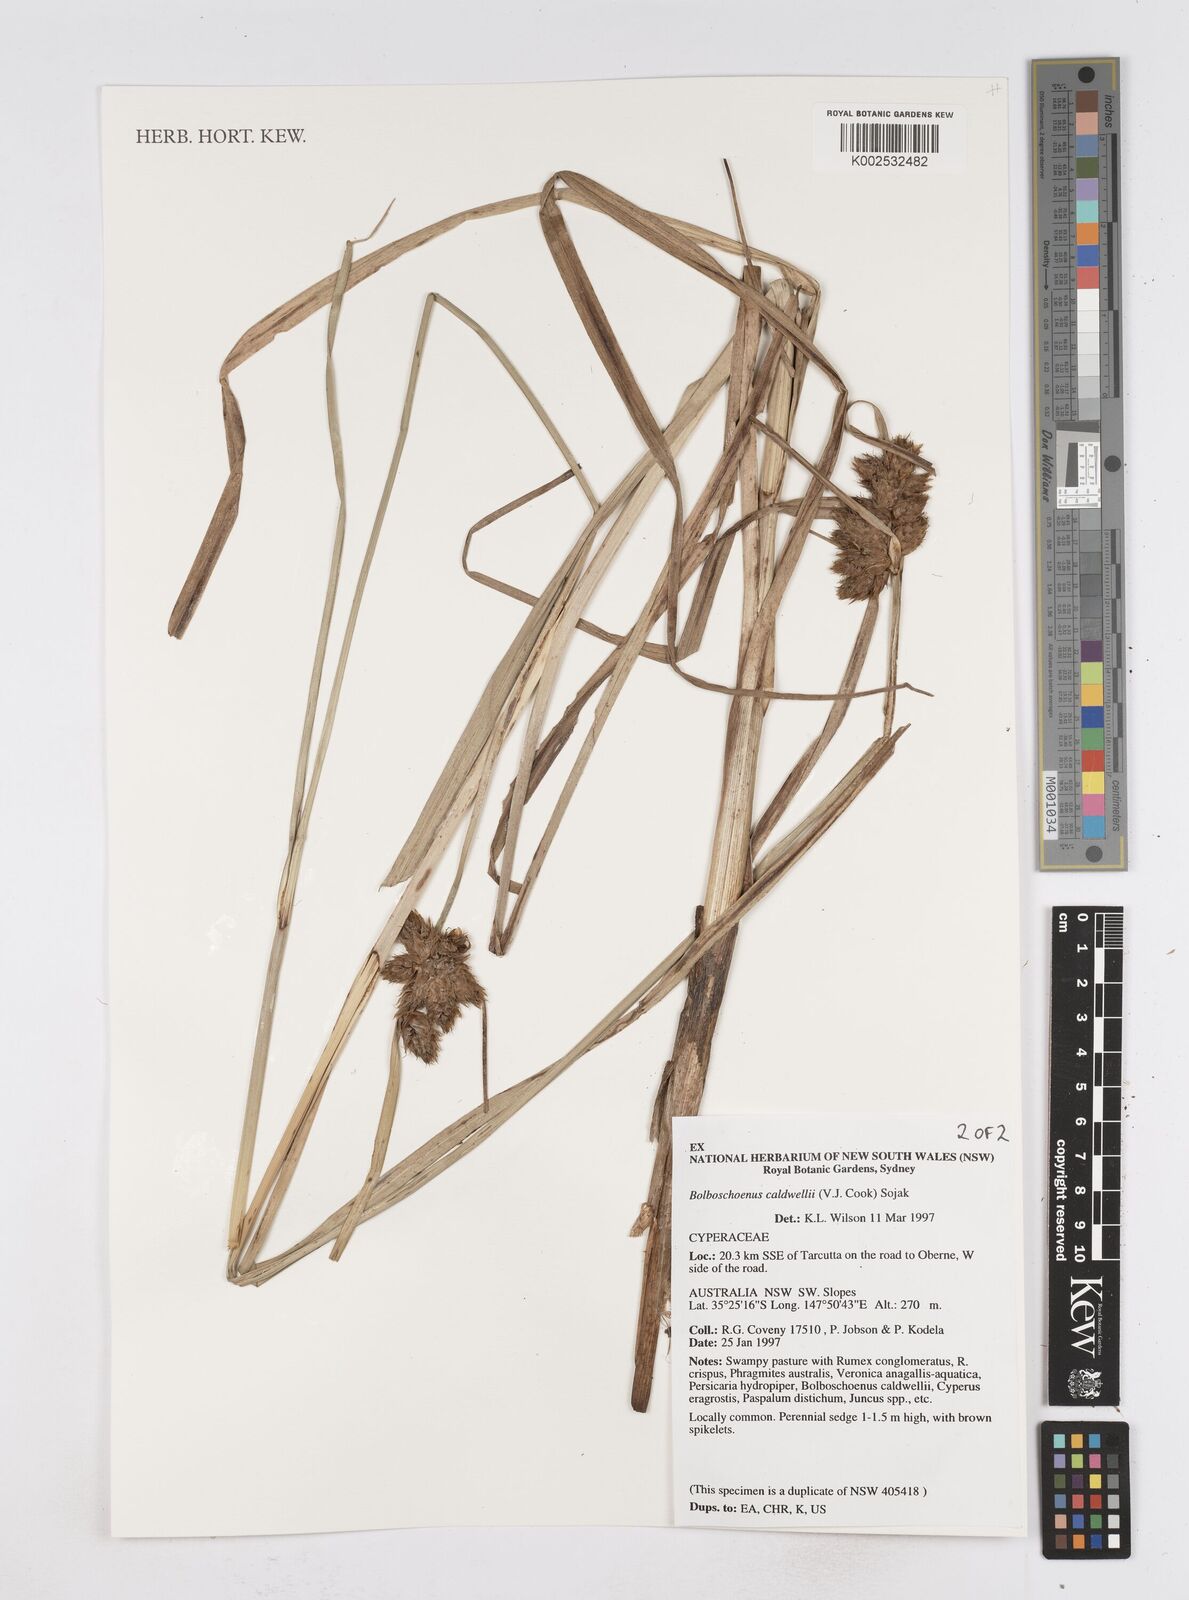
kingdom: Plantae
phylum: Tracheophyta
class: Liliopsida
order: Poales
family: Cyperaceae
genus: Bolboschoenus
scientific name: Bolboschoenus caldwellii
